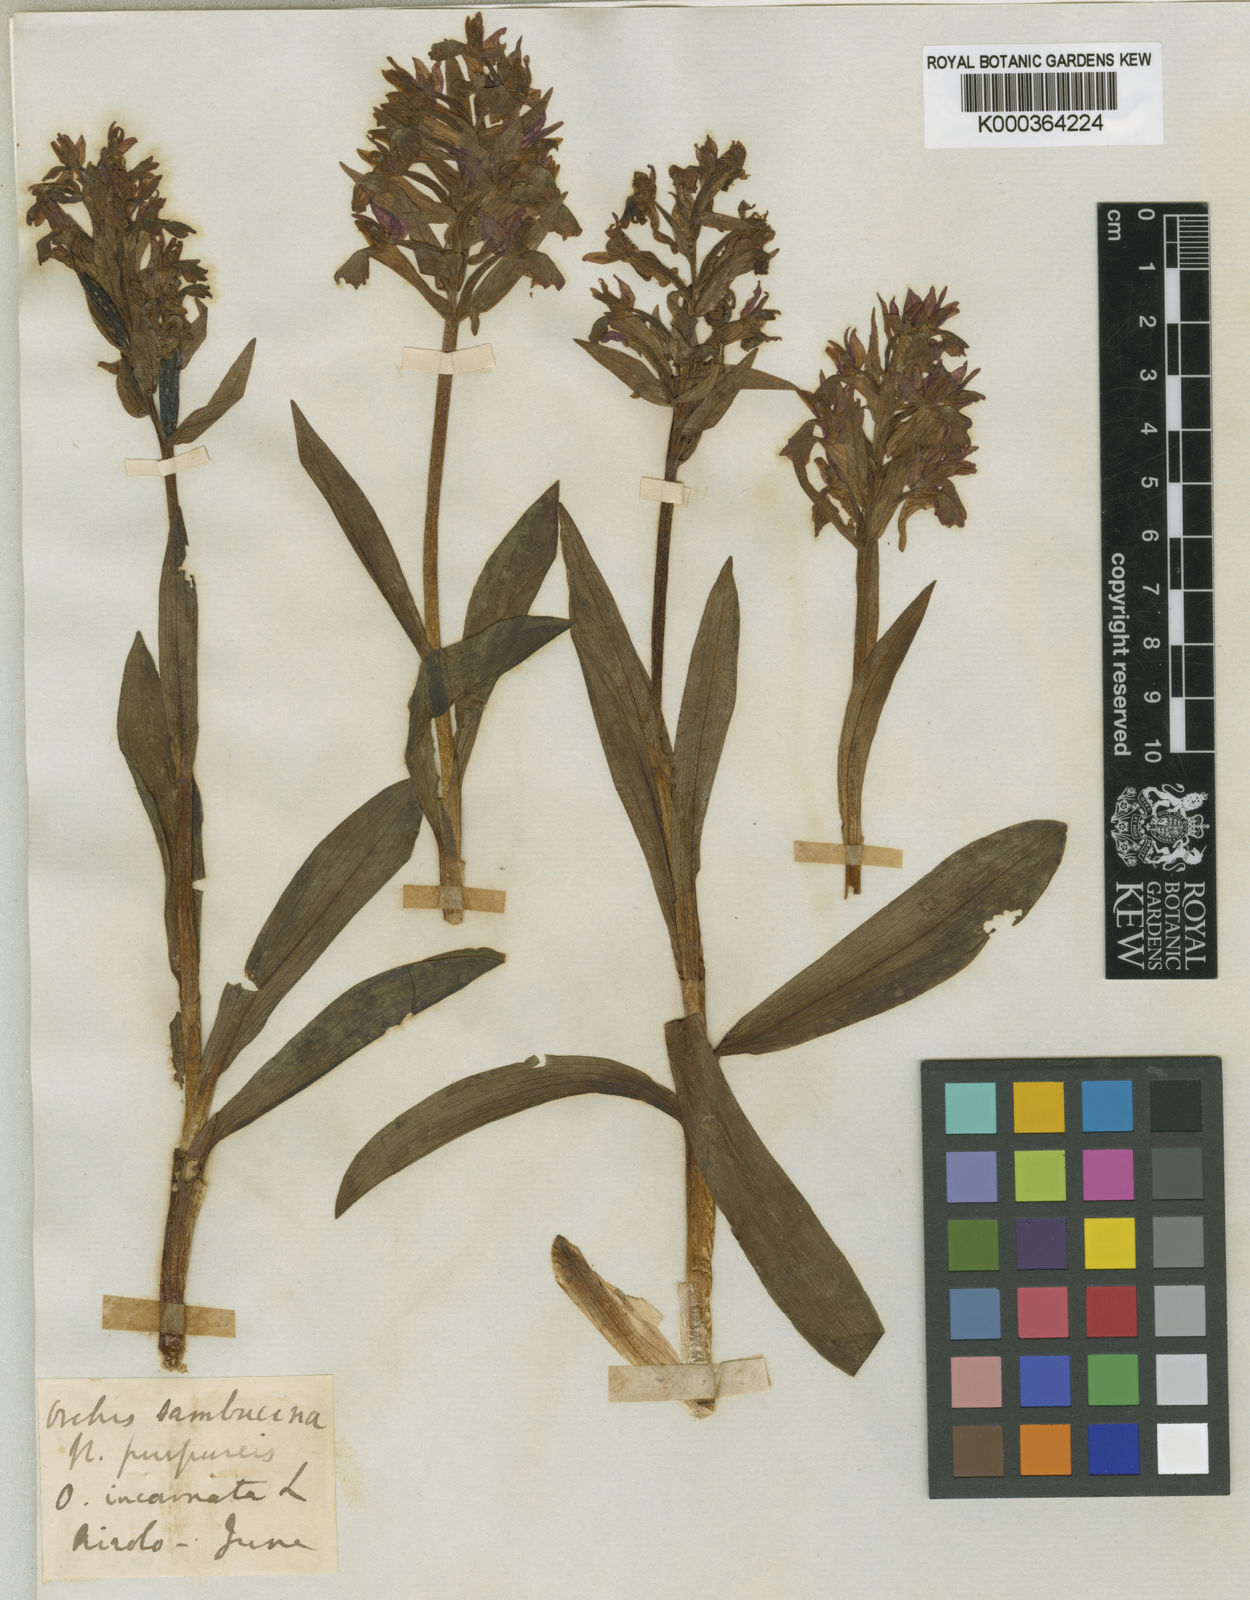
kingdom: Plantae
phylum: Tracheophyta
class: Liliopsida
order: Asparagales
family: Orchidaceae
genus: Dactylorhiza
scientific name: Dactylorhiza
